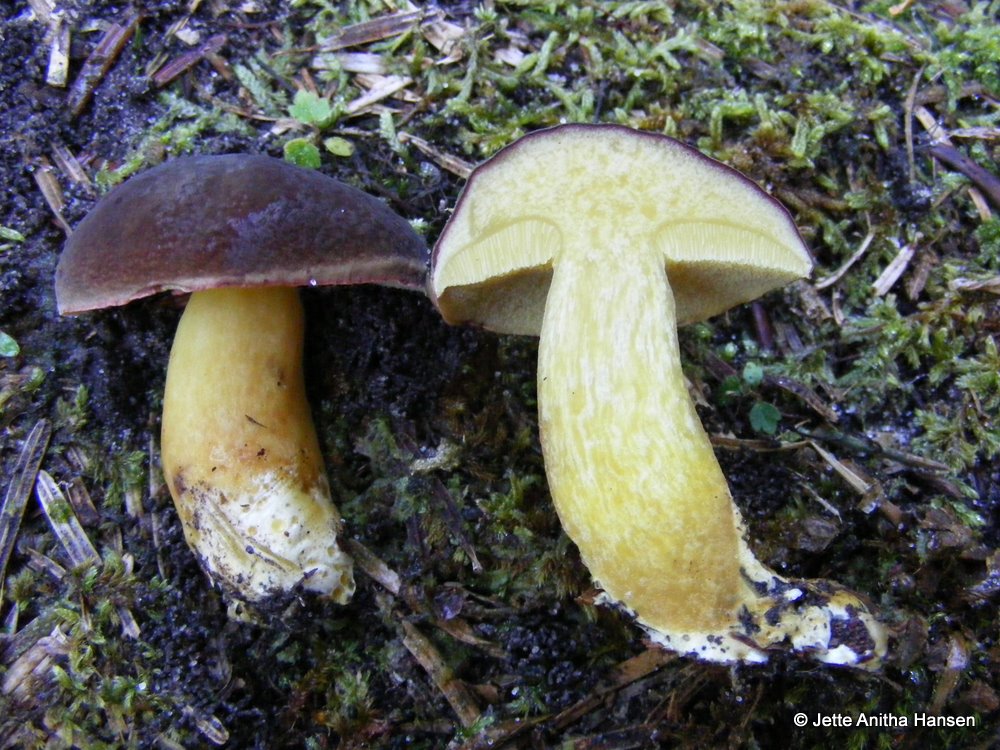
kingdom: Fungi
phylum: Basidiomycota
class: Agaricomycetes
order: Boletales
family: Boletaceae
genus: Xerocomellus
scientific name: Xerocomellus pruinatus
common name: dugget rørhat
